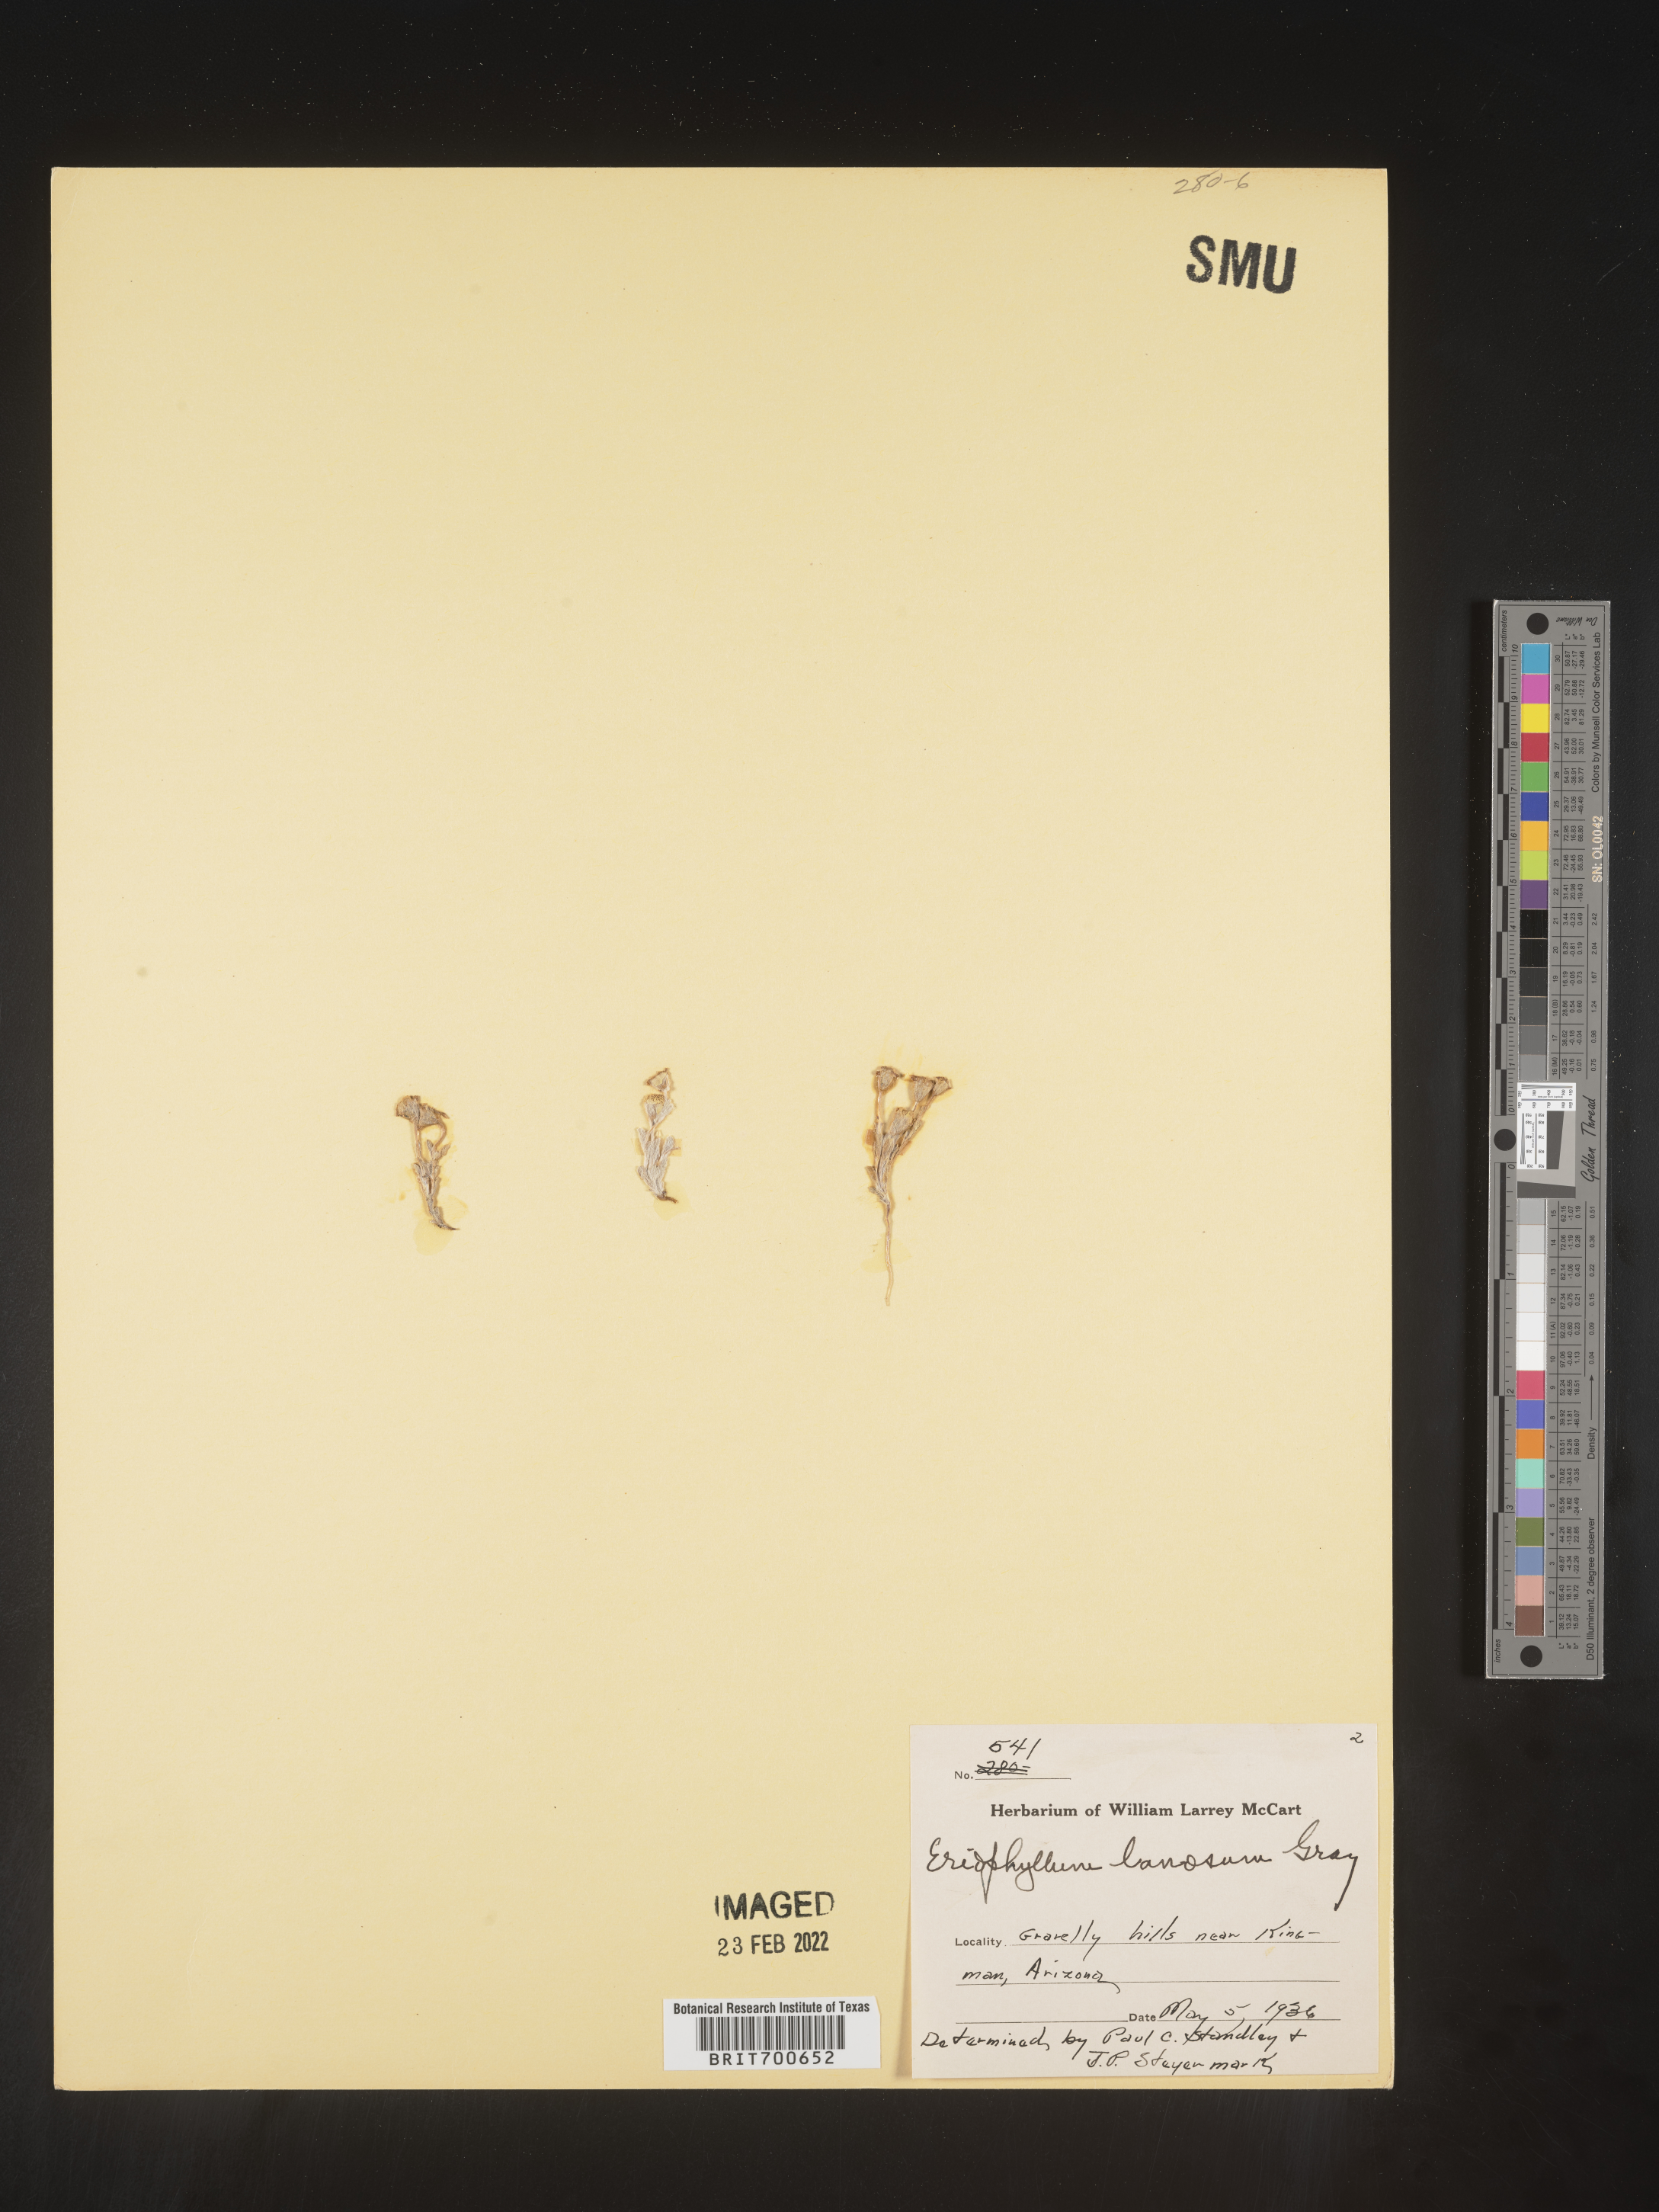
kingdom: Plantae
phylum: Tracheophyta
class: Magnoliopsida
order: Asterales
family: Asteraceae
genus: Eriophyllum
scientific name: Eriophyllum lanosum
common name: White easter-bonnets
